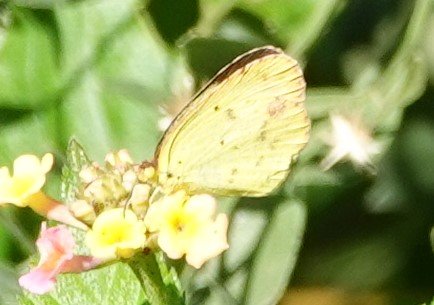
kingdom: Animalia
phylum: Arthropoda
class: Insecta
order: Lepidoptera
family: Pieridae
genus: Pyrisitia
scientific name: Pyrisitia lisa
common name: Little Yellow
